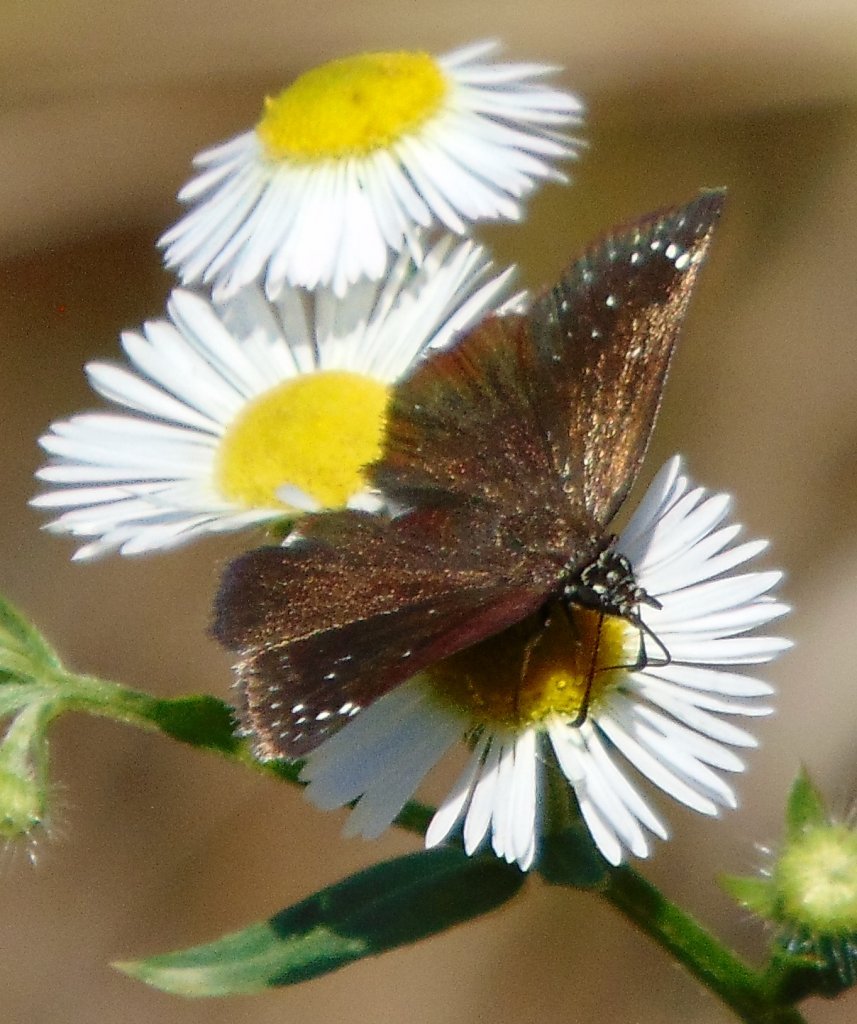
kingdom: Animalia
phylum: Arthropoda
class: Insecta
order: Lepidoptera
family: Hesperiidae
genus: Pholisora
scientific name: Pholisora catullus
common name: Common Sootywing
